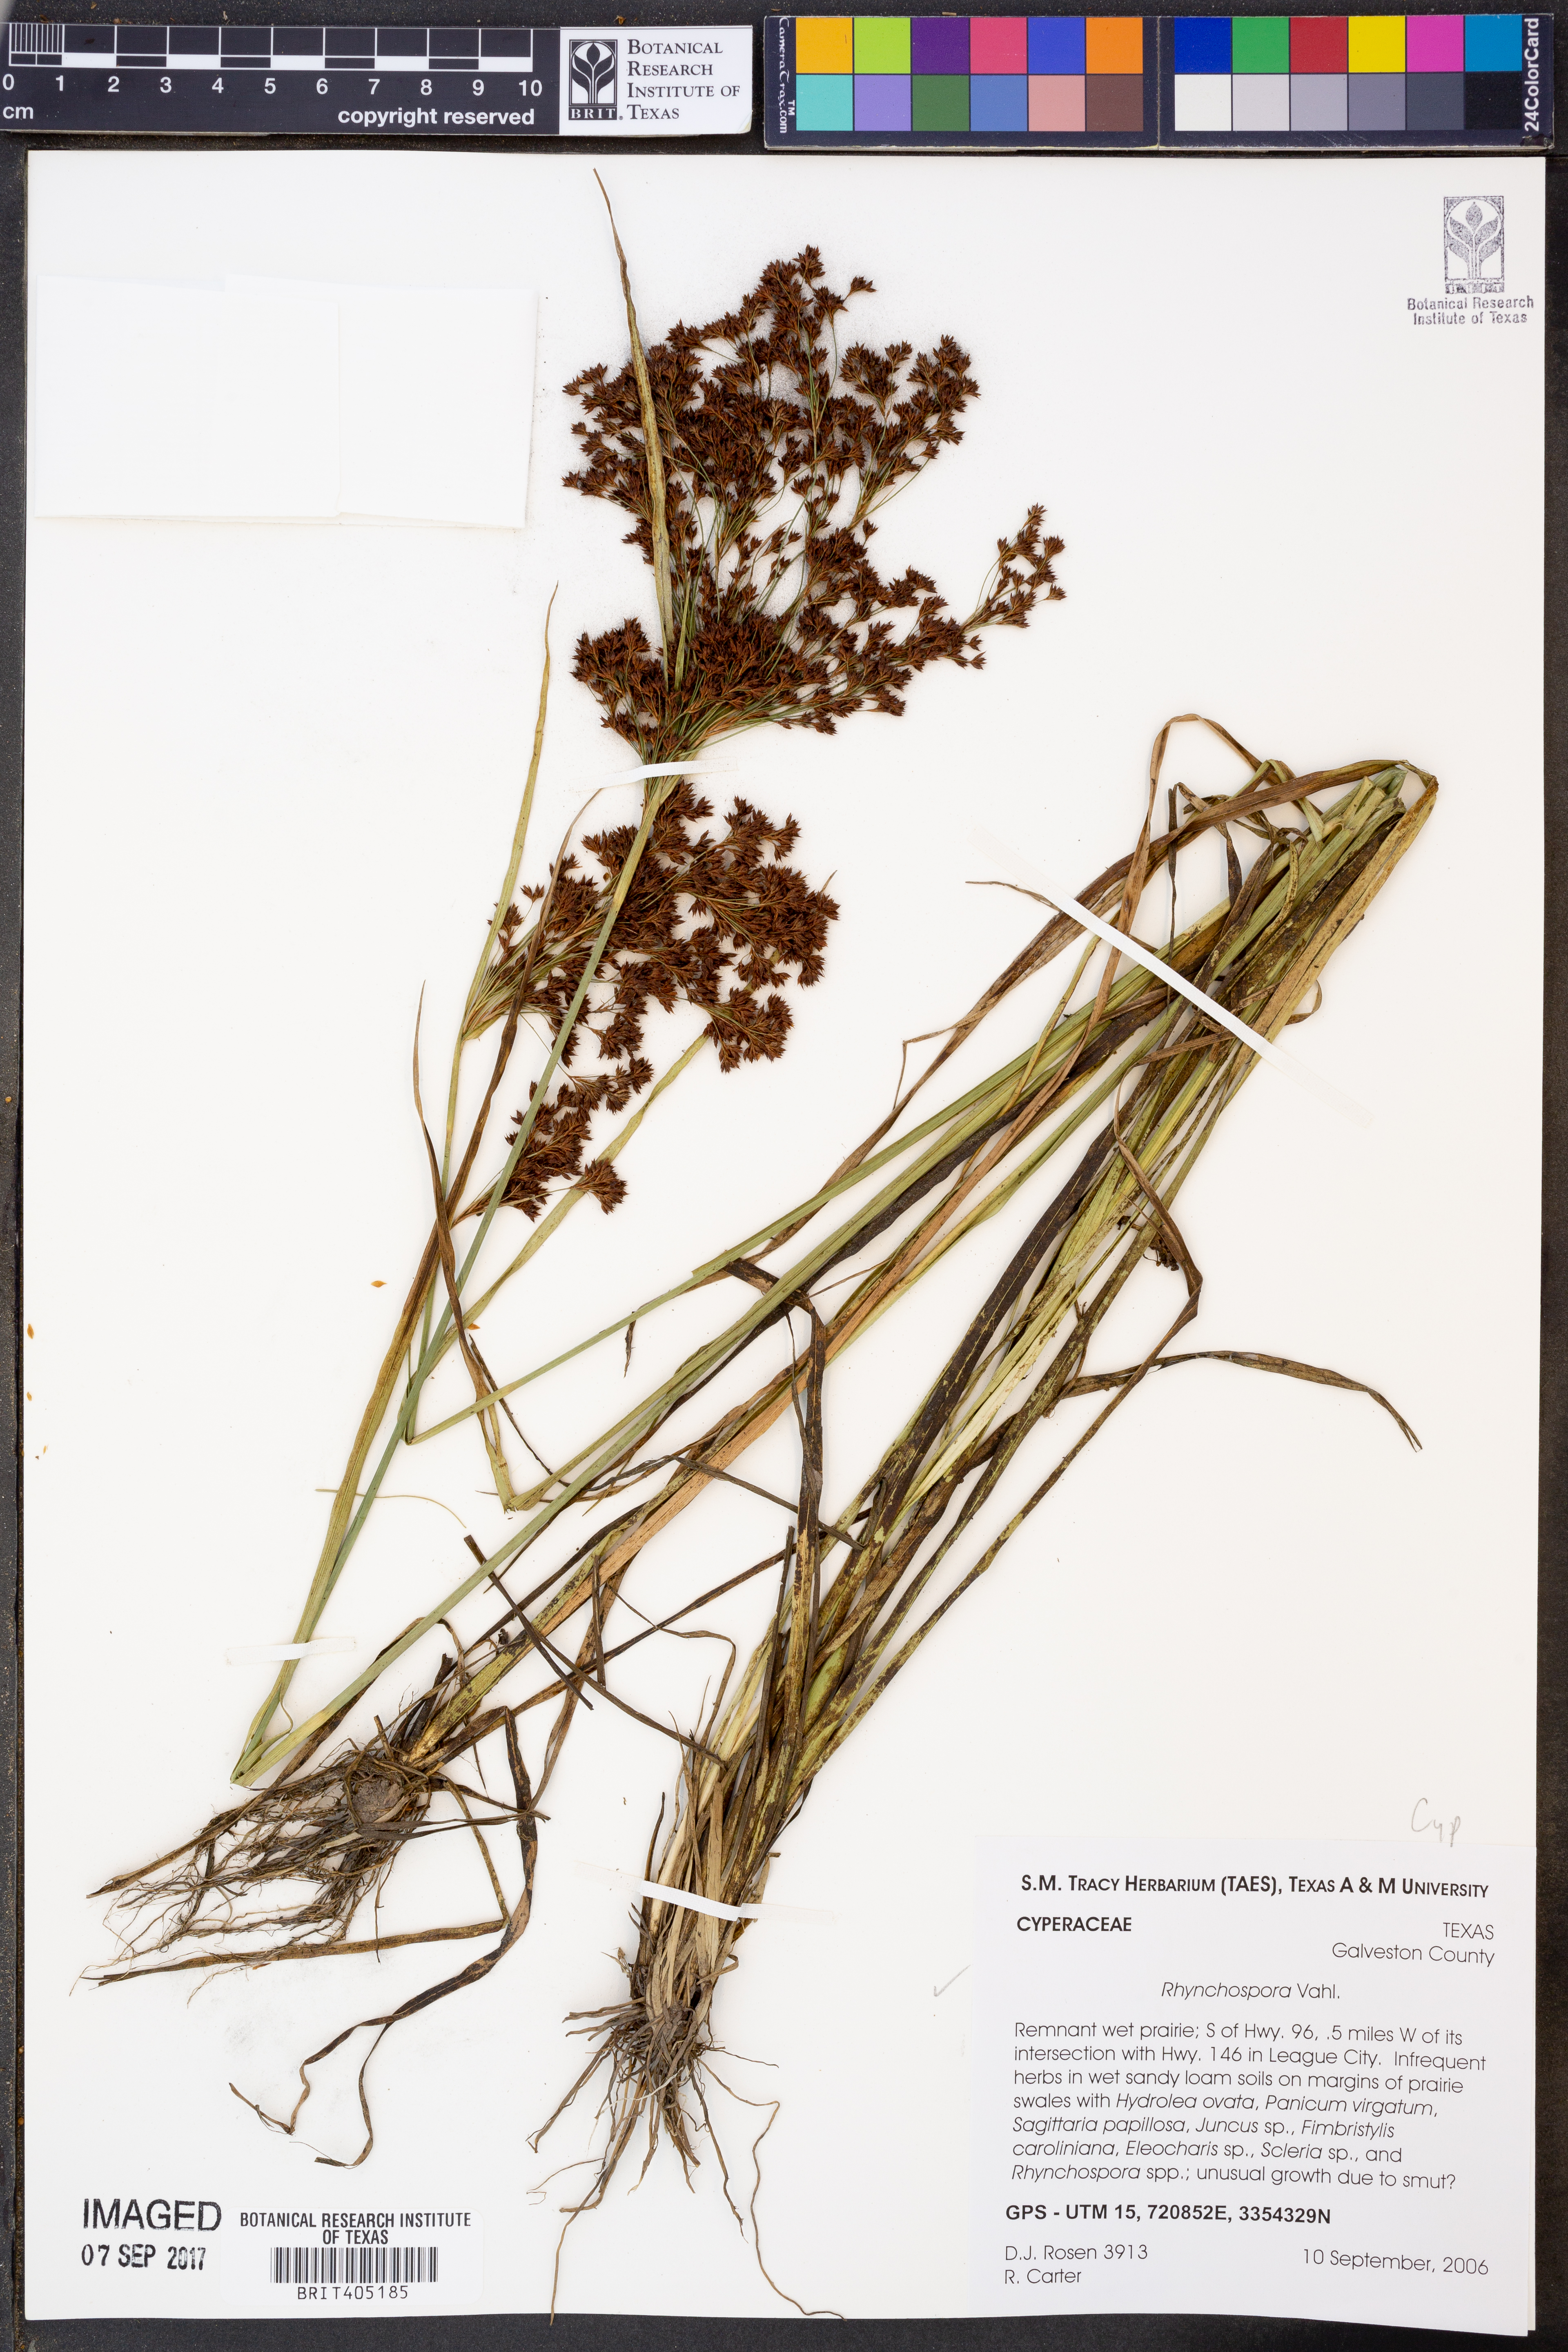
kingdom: Plantae
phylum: Tracheophyta
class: Liliopsida
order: Poales
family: Cyperaceae
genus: Rhynchospora
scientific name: Rhynchospora
